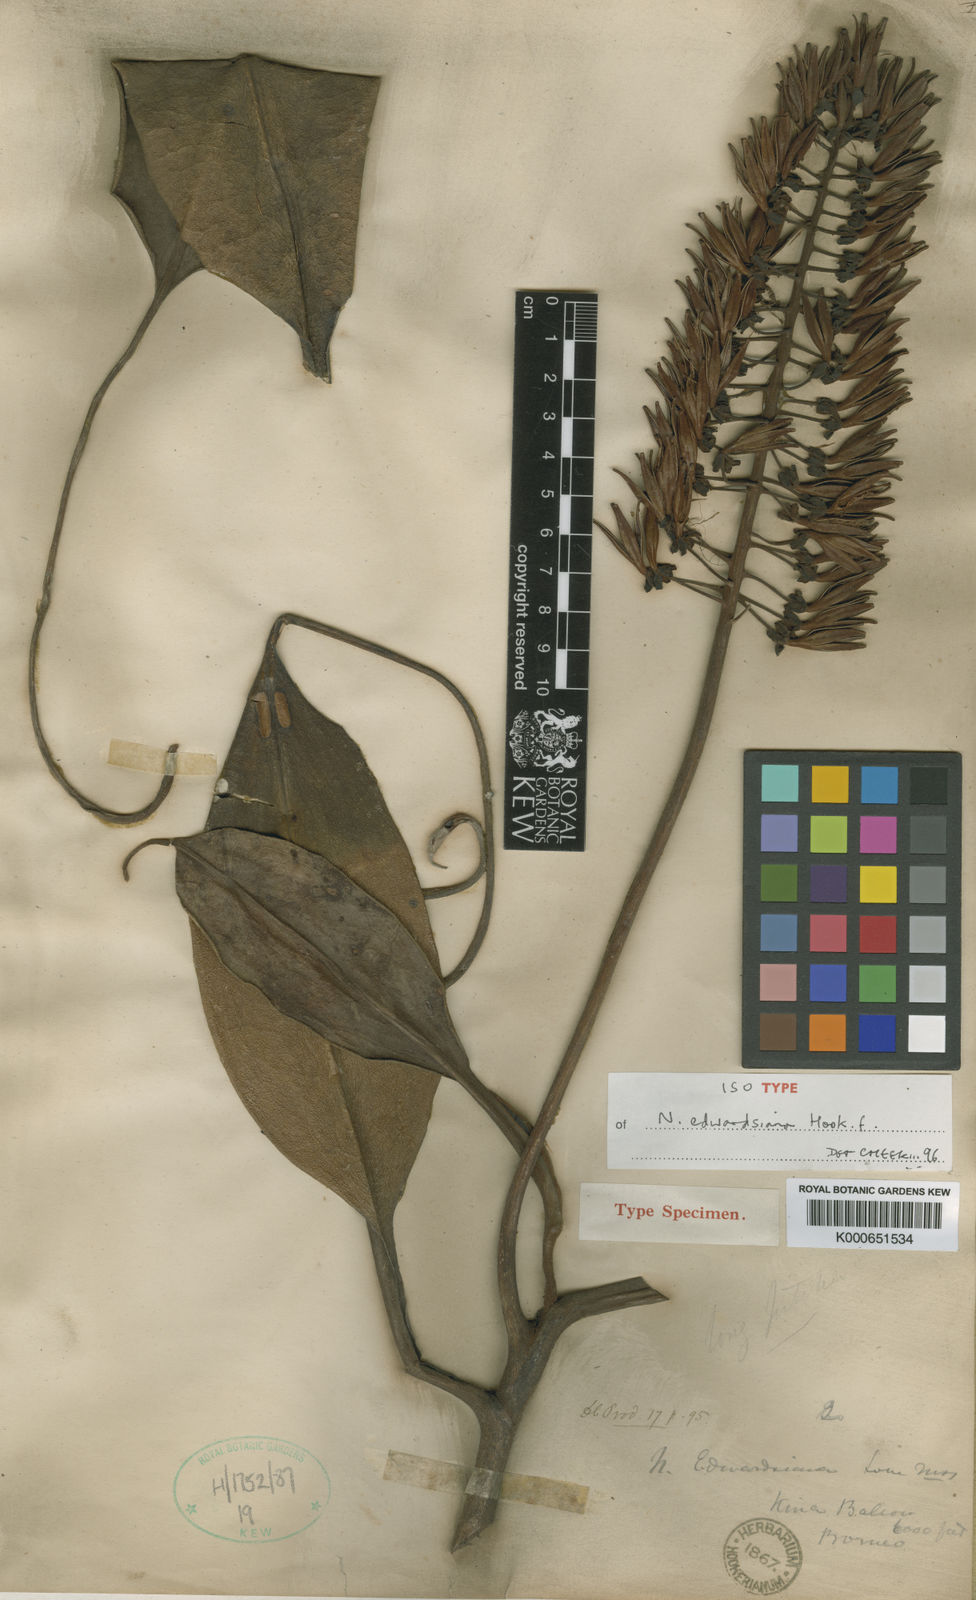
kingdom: Plantae
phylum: Tracheophyta
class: Magnoliopsida
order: Caryophyllales
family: Nepenthaceae
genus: Nepenthes
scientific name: Nepenthes edwardsiana
